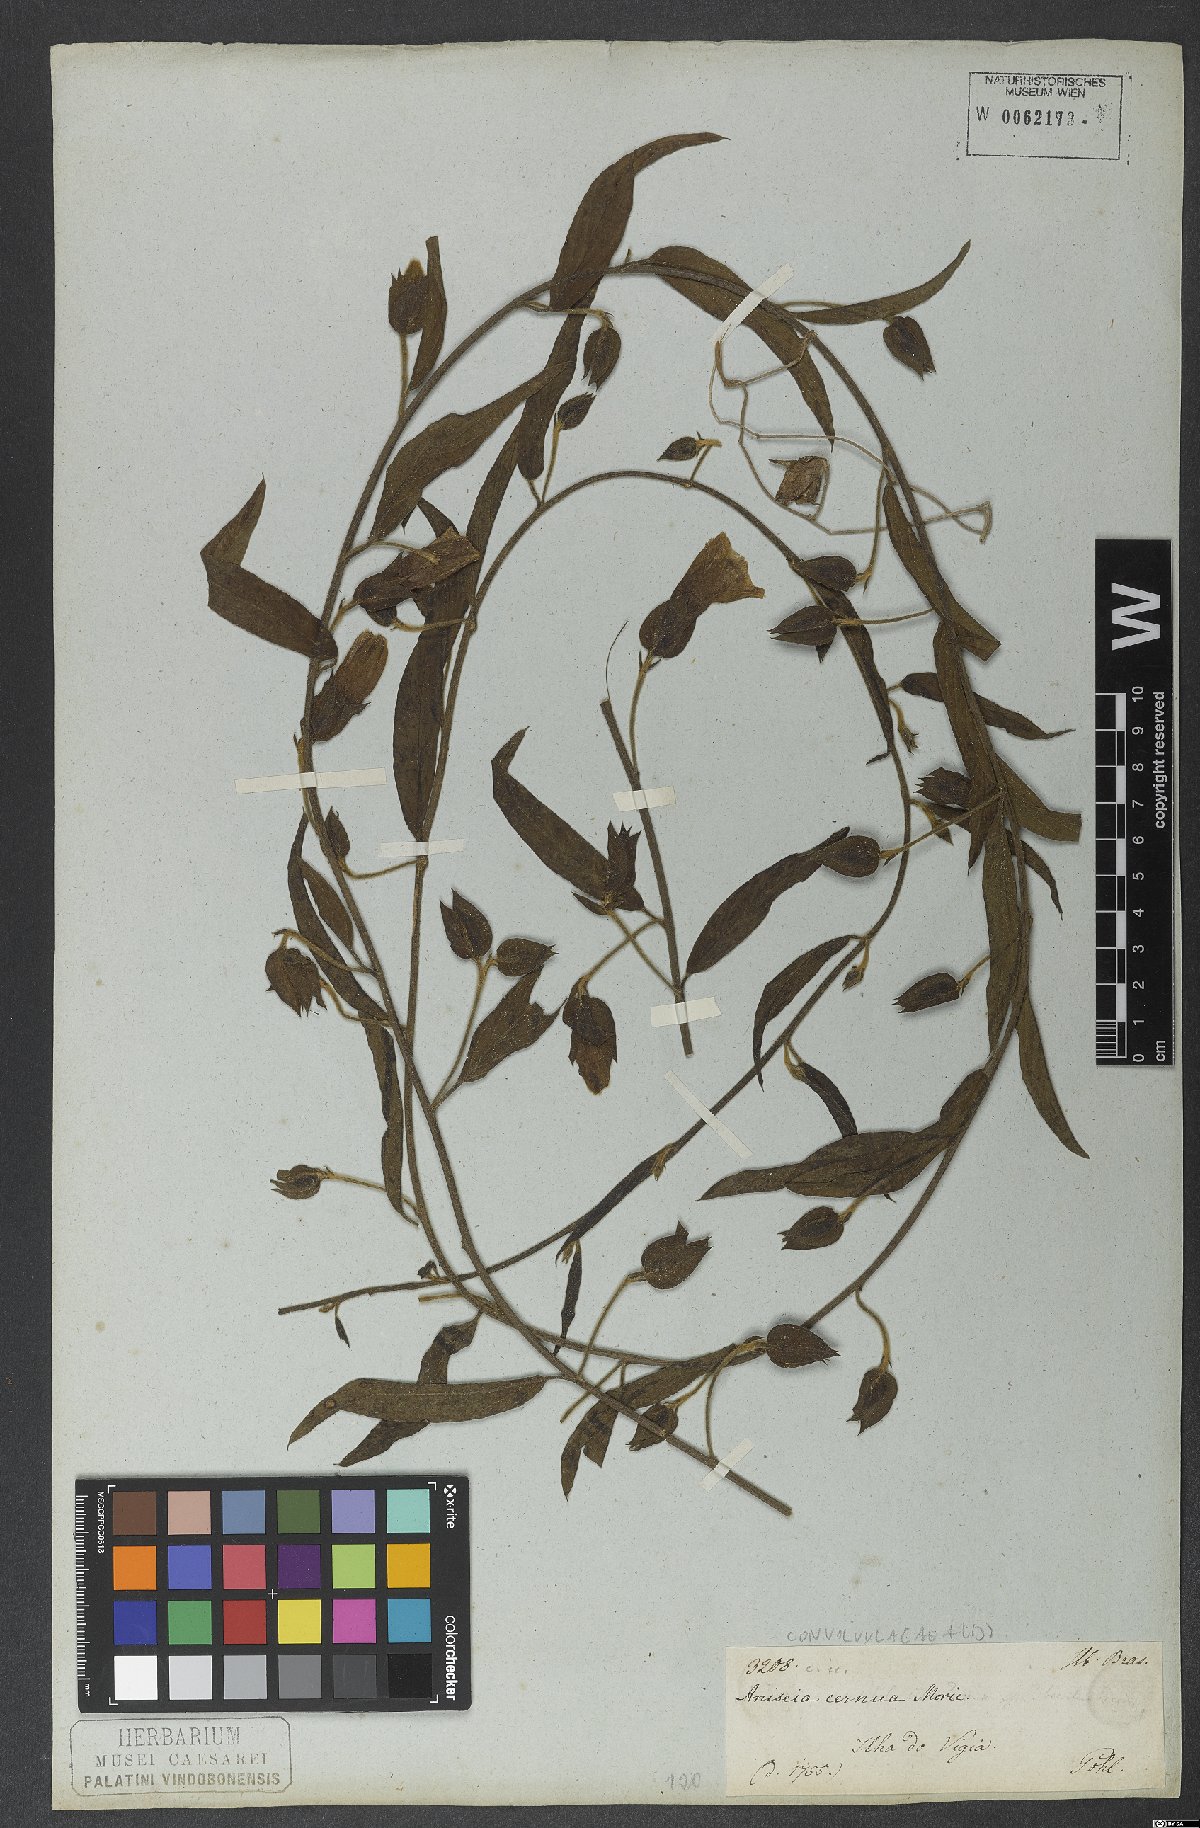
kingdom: Plantae
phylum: Tracheophyta
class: Magnoliopsida
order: Solanales
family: Convolvulaceae
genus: Aniseia
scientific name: Aniseia martinicensis
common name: Kulayadambu
